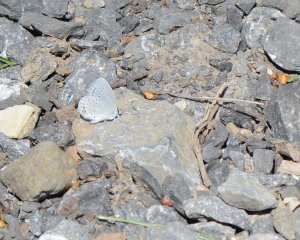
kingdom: Animalia
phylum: Arthropoda
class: Insecta
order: Lepidoptera
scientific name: Lepidoptera
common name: Butterflies
